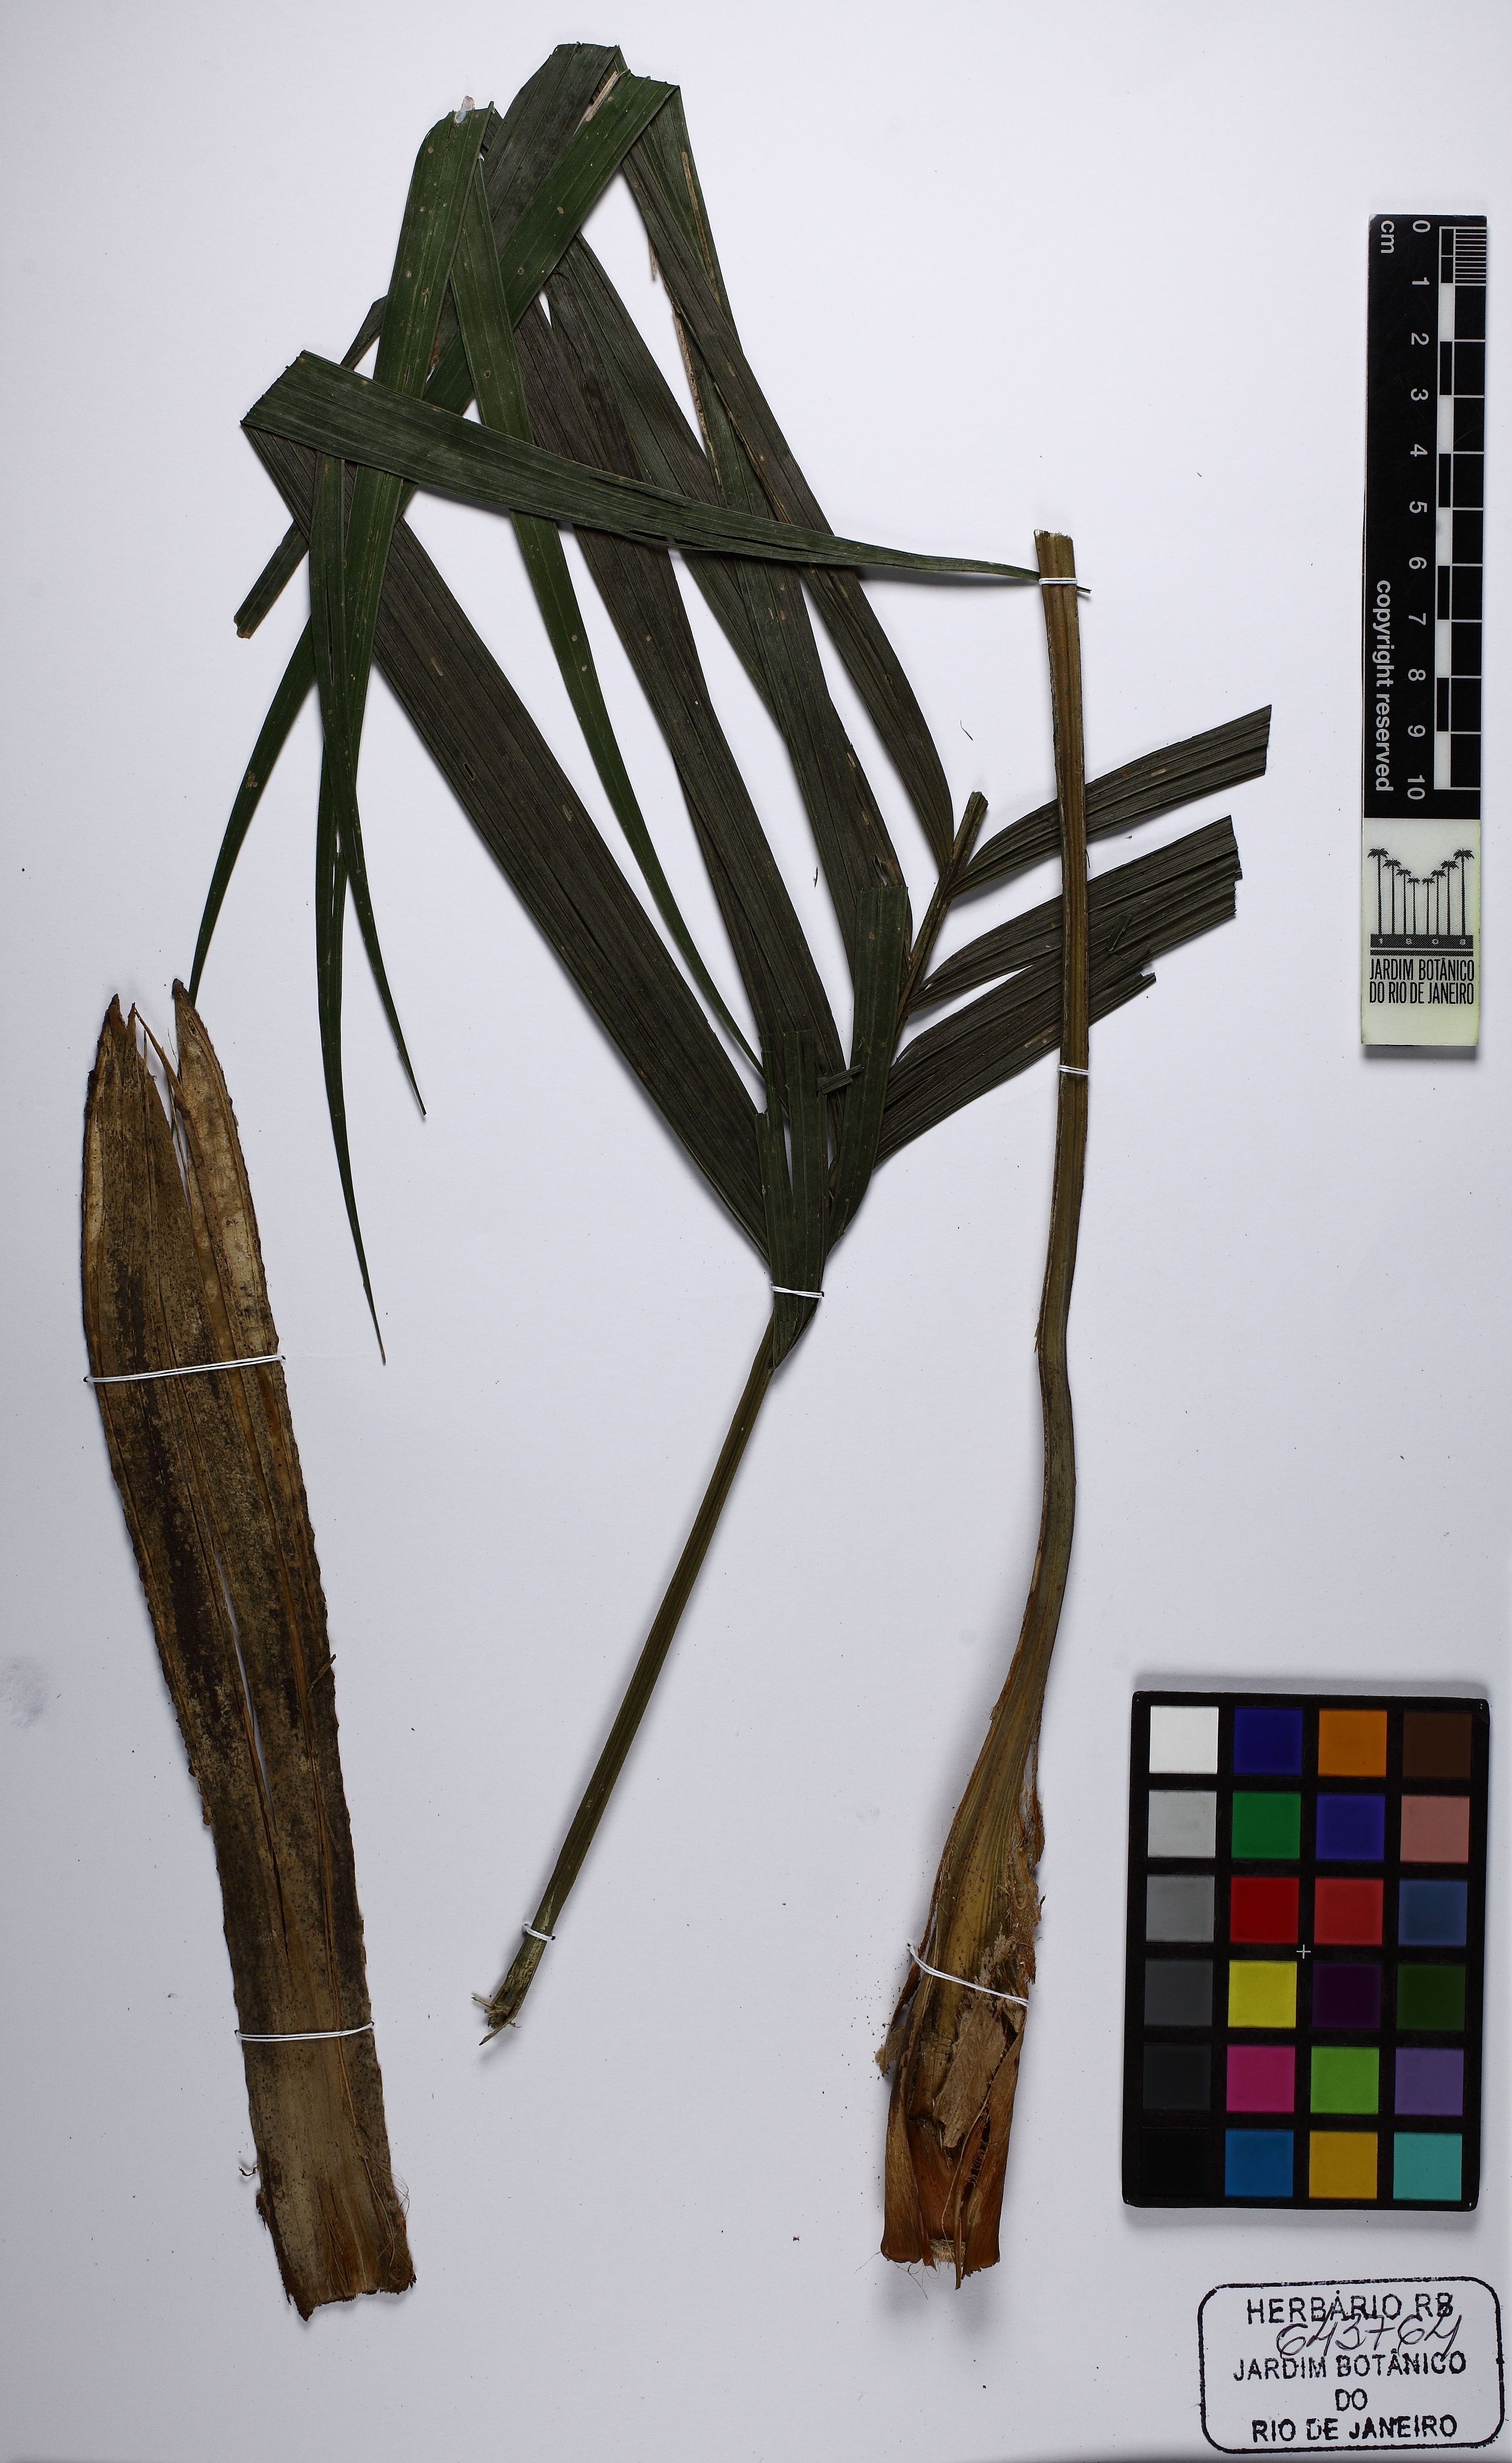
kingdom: Plantae
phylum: Tracheophyta
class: Liliopsida
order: Arecales
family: Arecaceae
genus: Geonoma
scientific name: Geonoma schottiana
